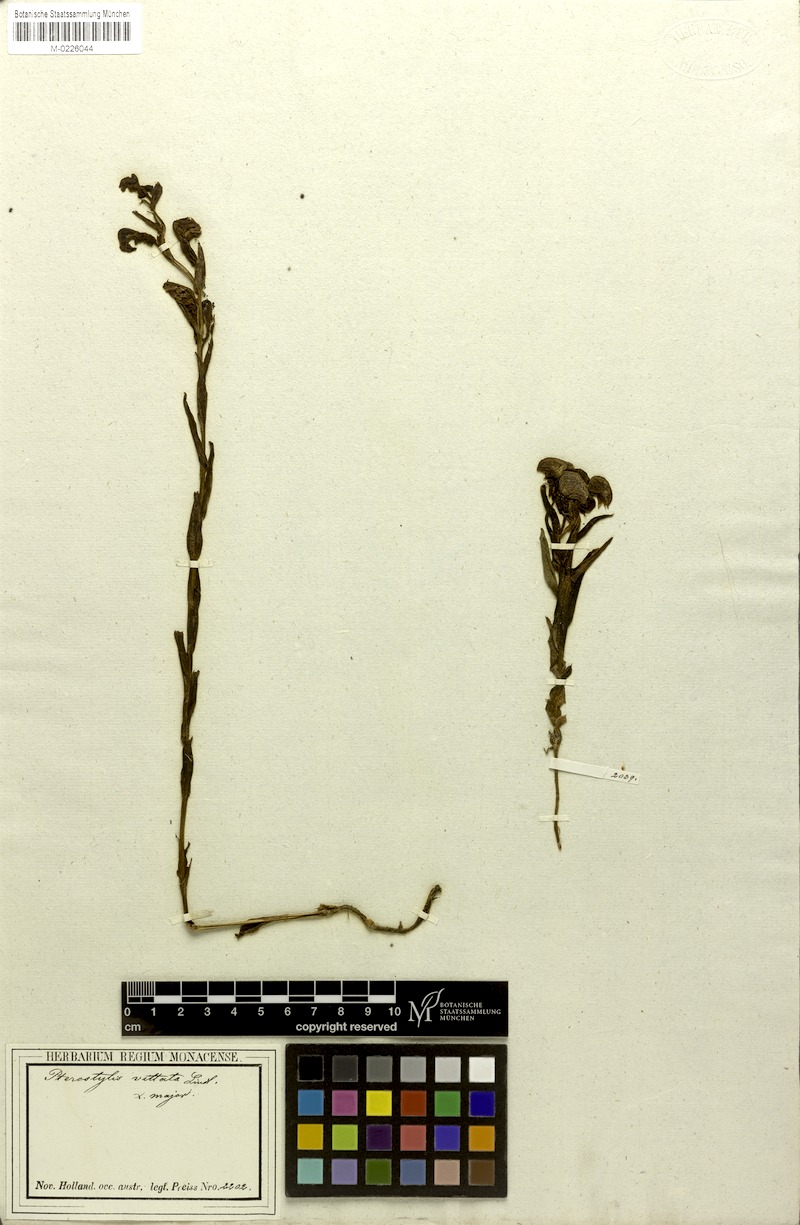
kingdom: Plantae
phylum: Tracheophyta
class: Liliopsida
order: Asparagales
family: Orchidaceae
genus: Pterostylis
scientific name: Pterostylis vittata
